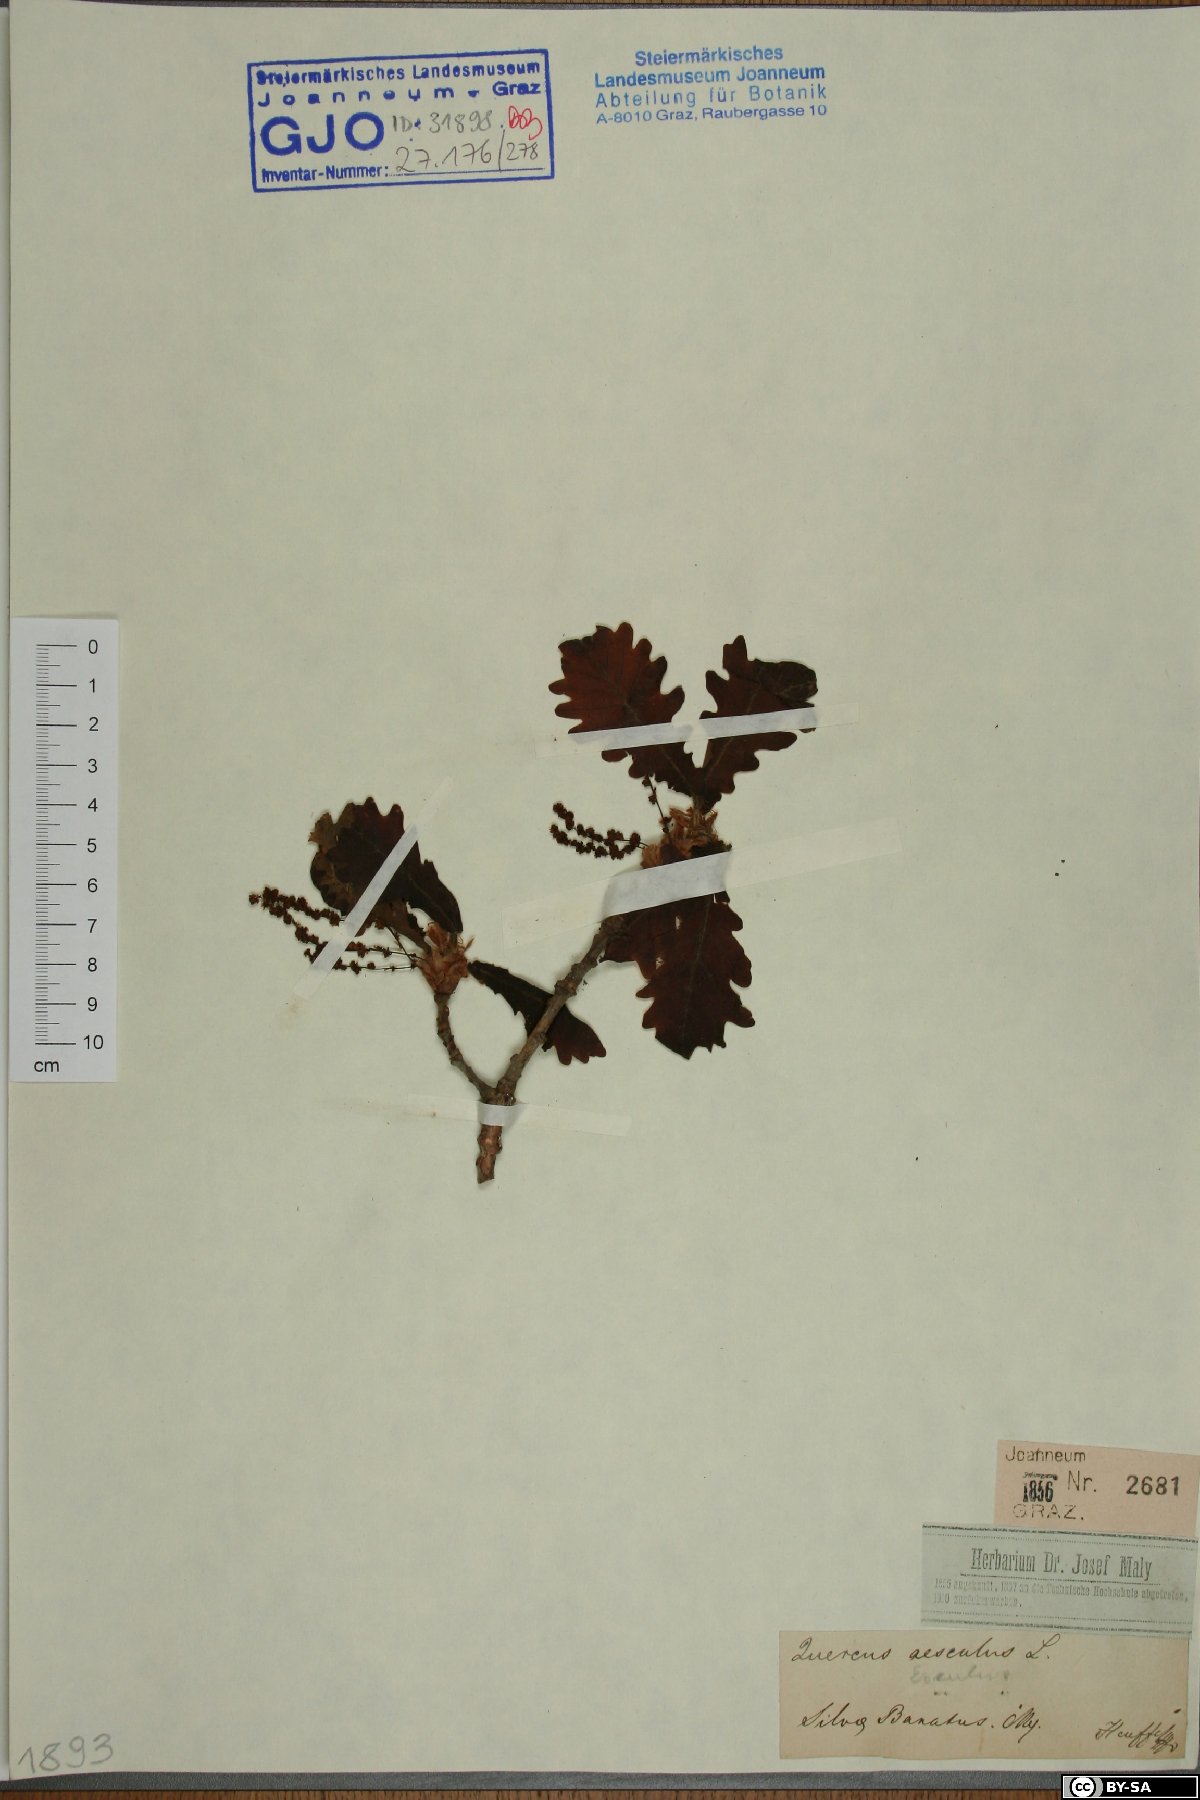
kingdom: Plantae
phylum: Tracheophyta
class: Magnoliopsida
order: Fagales
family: Fagaceae
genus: Quercus
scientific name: Quercus petraea
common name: Sessile oak
